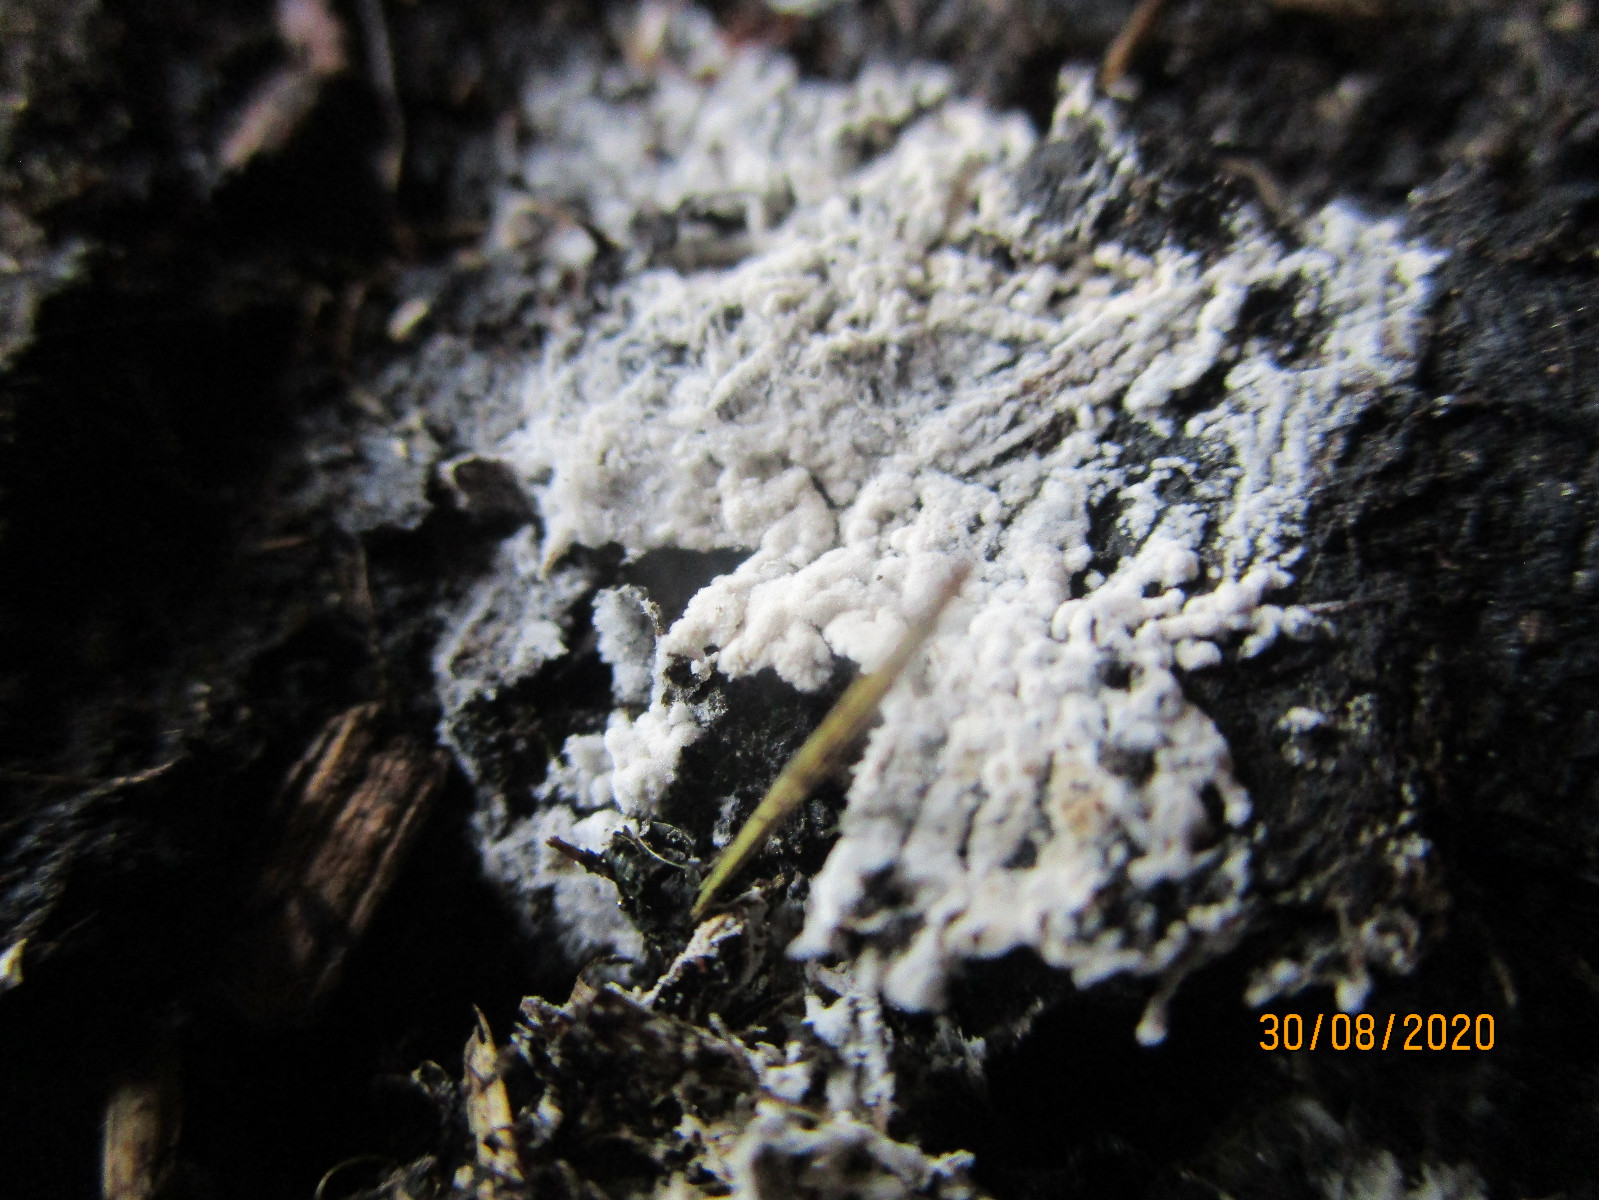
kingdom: Fungi
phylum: Basidiomycota
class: Agaricomycetes
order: Corticiales
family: Corticiaceae
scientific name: Corticiaceae
